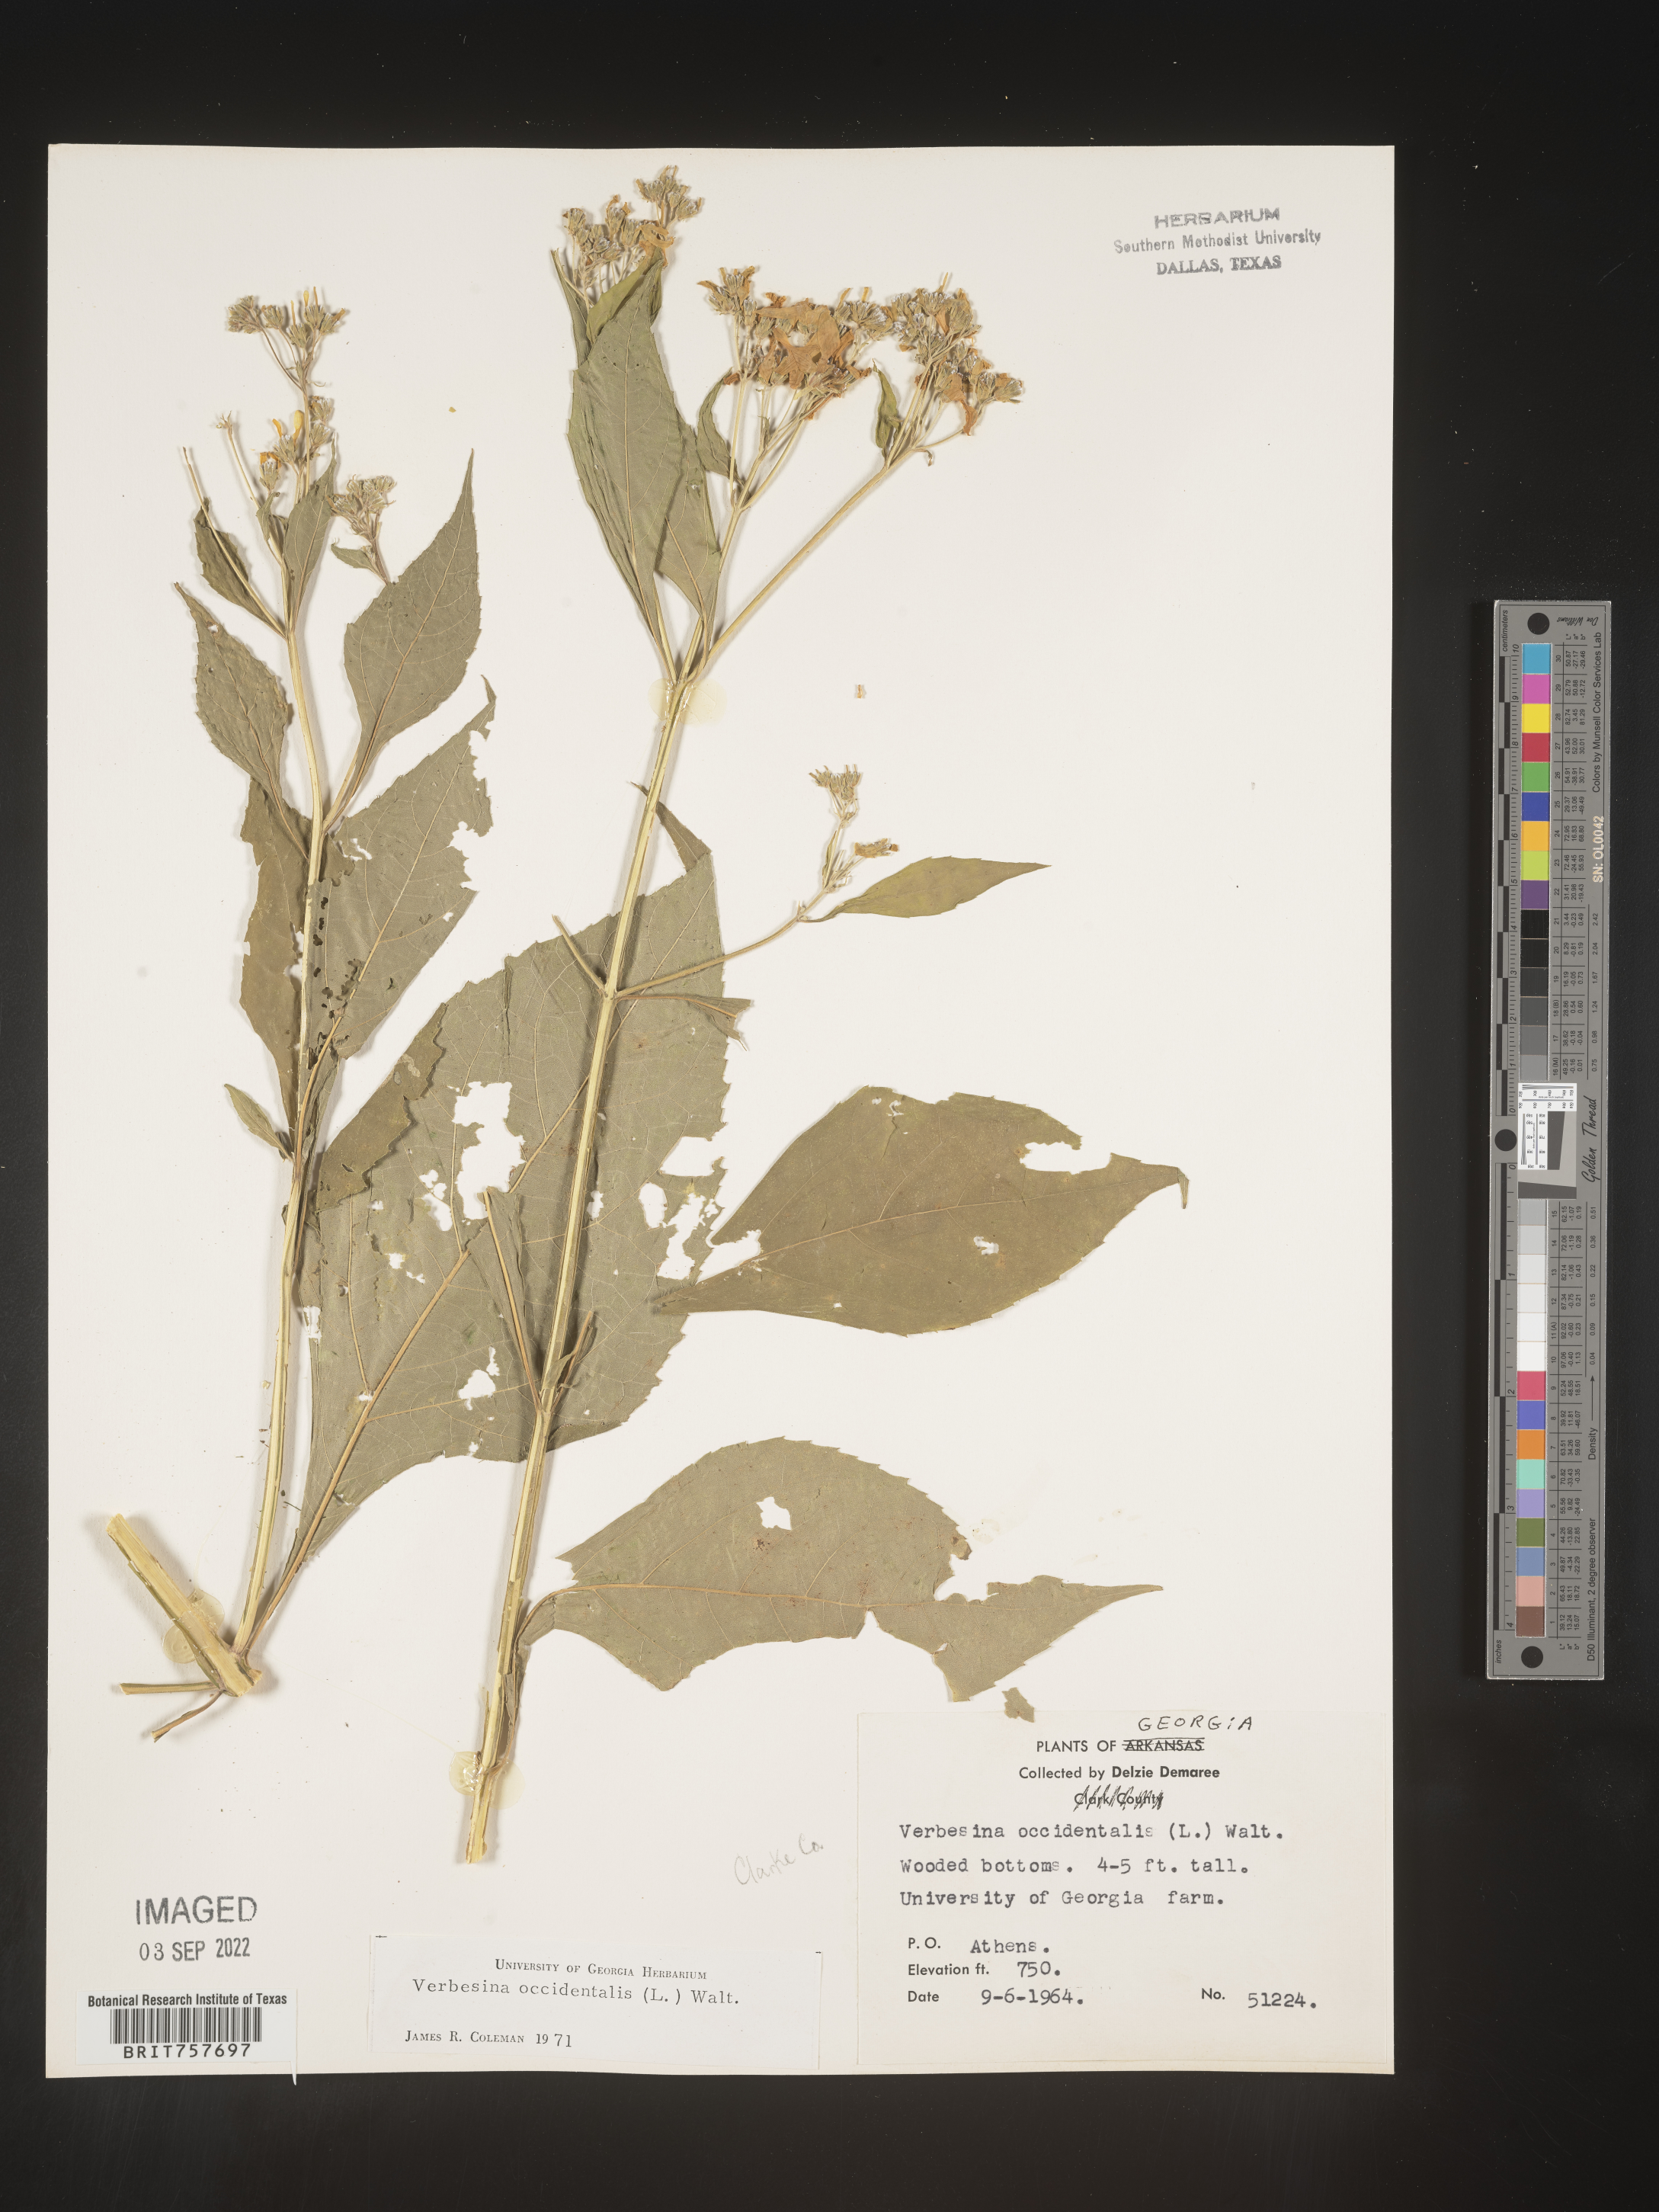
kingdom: Plantae
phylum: Tracheophyta
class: Magnoliopsida
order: Asterales
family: Asteraceae
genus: Verbesina
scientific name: Verbesina occidentalis
